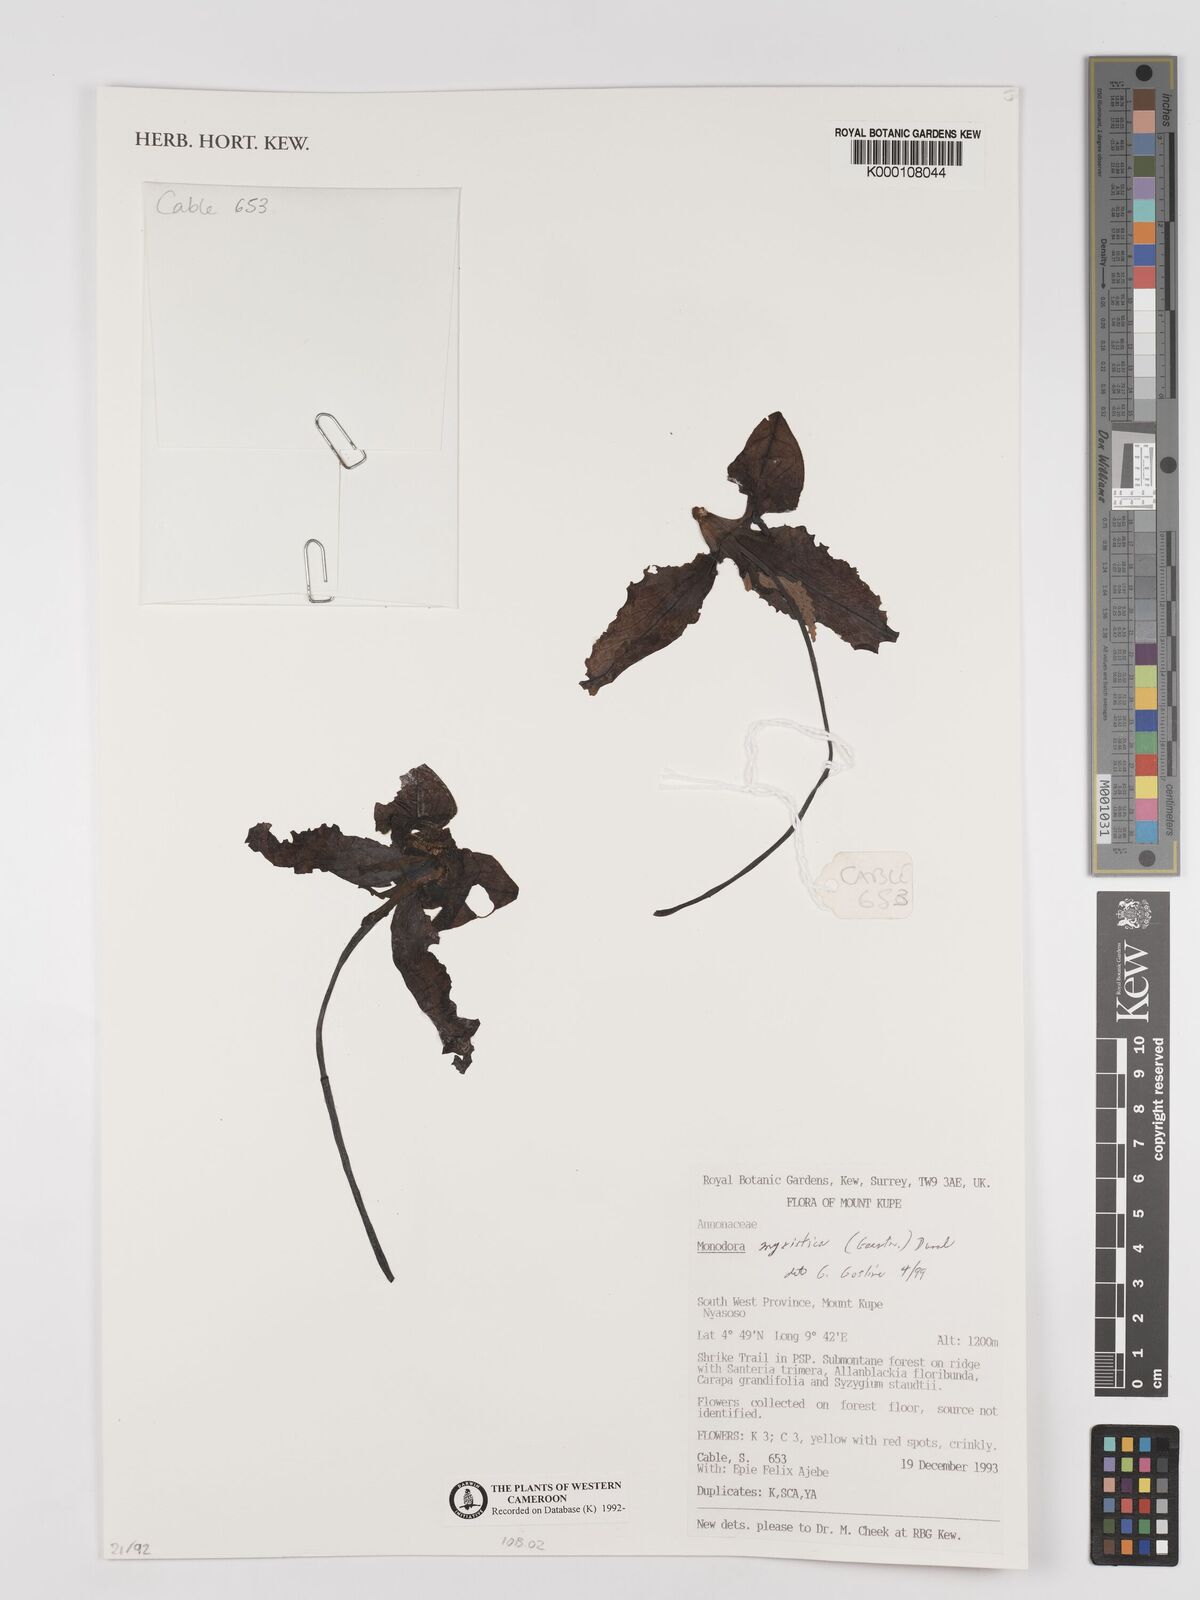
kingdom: Plantae
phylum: Tracheophyta
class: Magnoliopsida
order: Magnoliales
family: Annonaceae
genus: Monodora
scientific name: Monodora myristica
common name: African nutmeg
